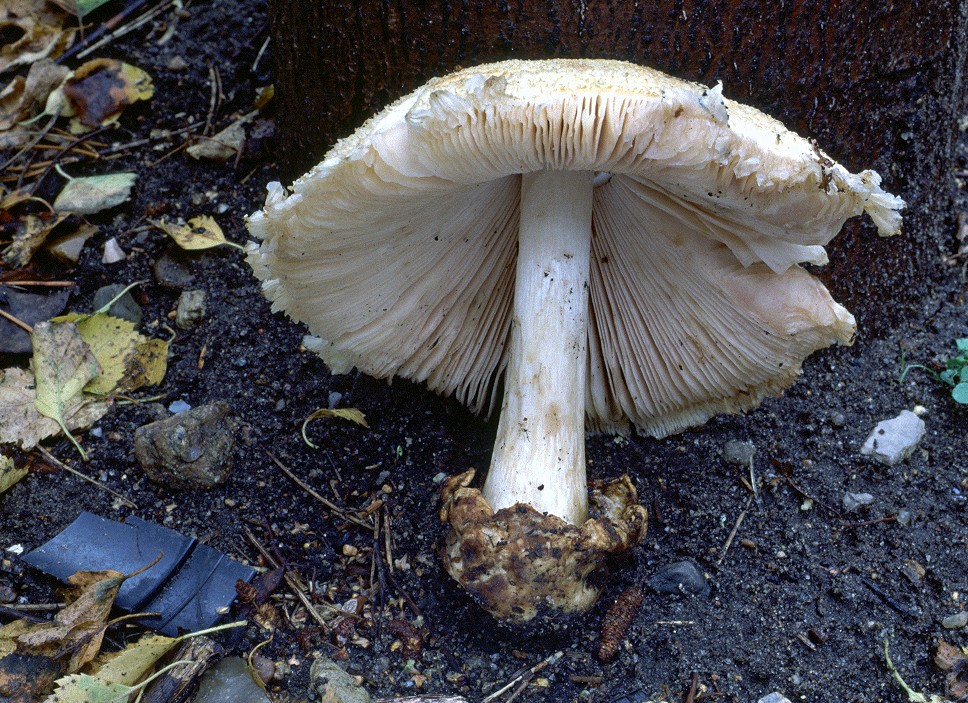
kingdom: Fungi
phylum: Basidiomycota
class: Agaricomycetes
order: Agaricales
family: Pluteaceae
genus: Volvariella
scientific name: Volvariella bombycina
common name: silkehåret posesvamp
